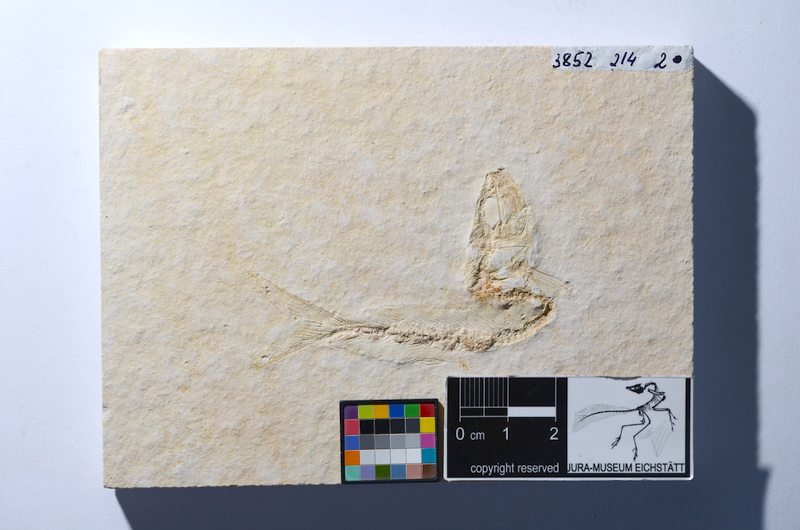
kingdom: Animalia
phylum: Chordata
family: Allothrissopidae
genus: Allothrissops
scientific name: Allothrissops mesogaster
